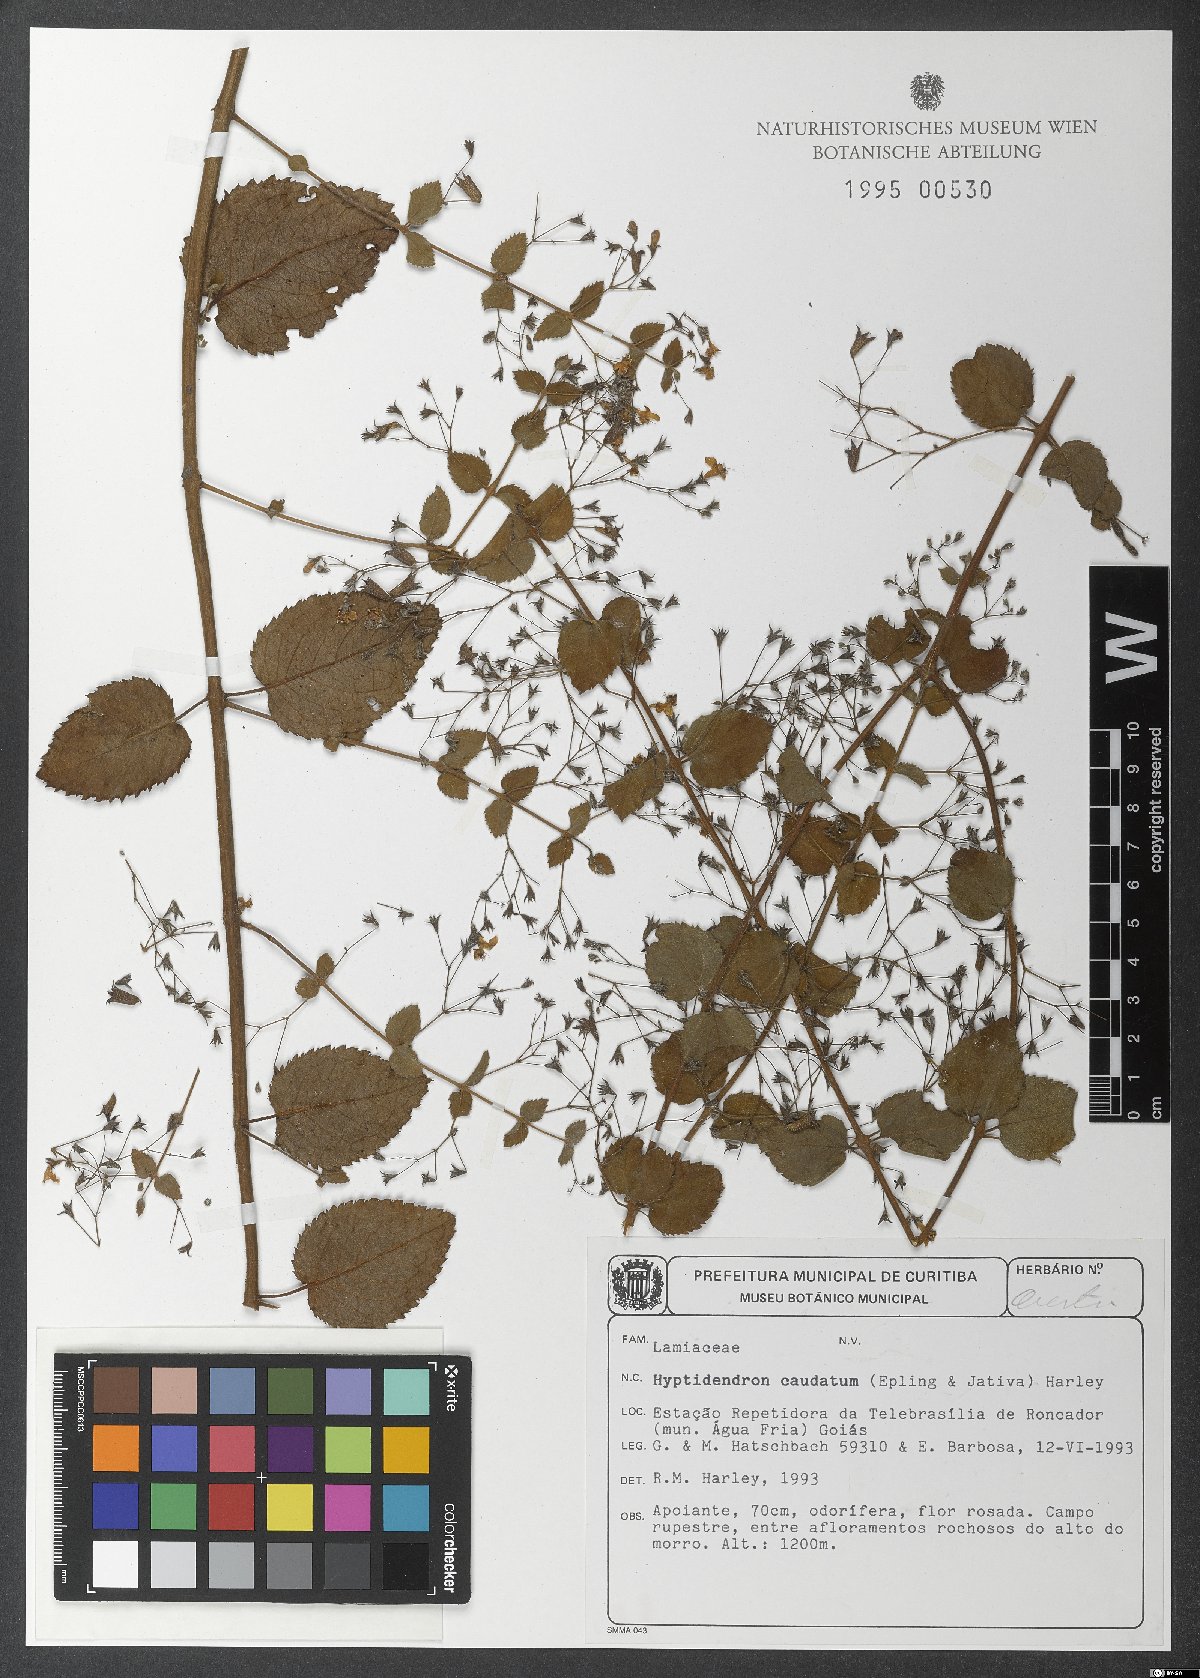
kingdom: Plantae
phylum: Tracheophyta
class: Magnoliopsida
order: Lamiales
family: Lamiaceae
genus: Hyptidendron
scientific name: Hyptidendron caudatum
